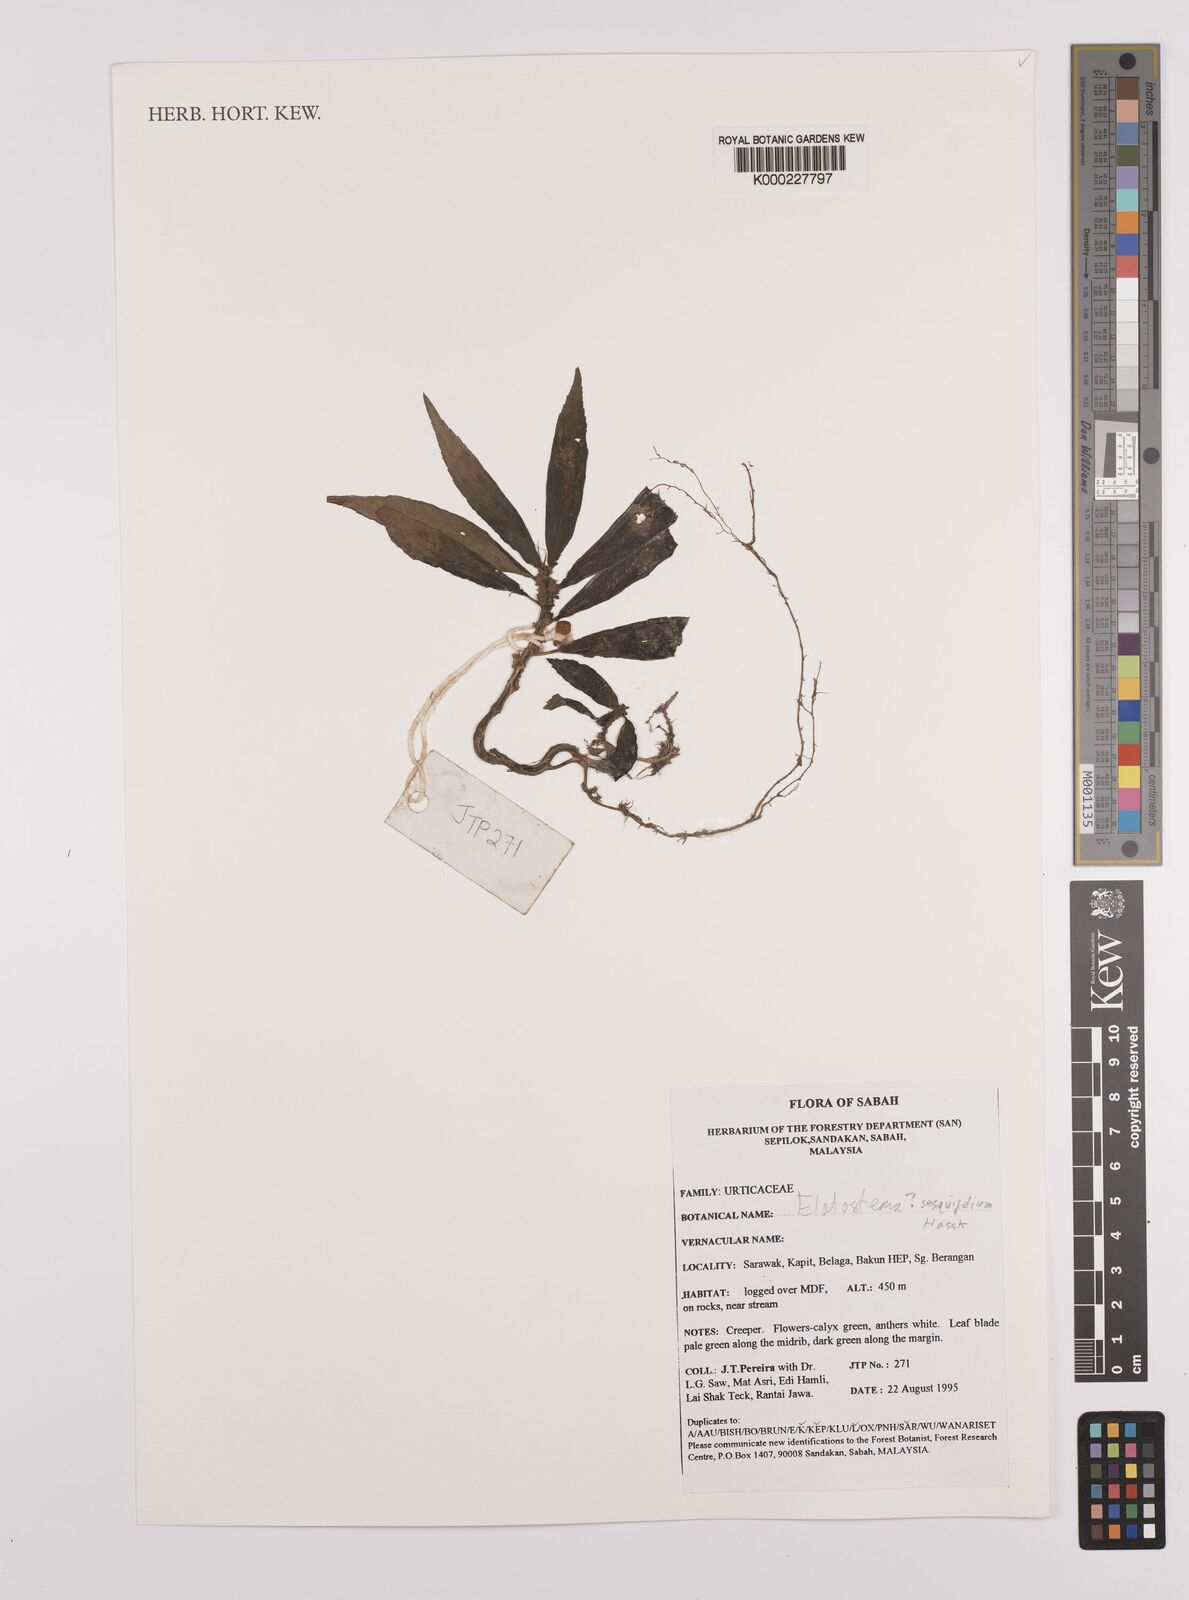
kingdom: Plantae
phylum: Tracheophyta
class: Magnoliopsida
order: Rosales
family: Urticaceae
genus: Elatostema
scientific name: Elatostema integrifolium
